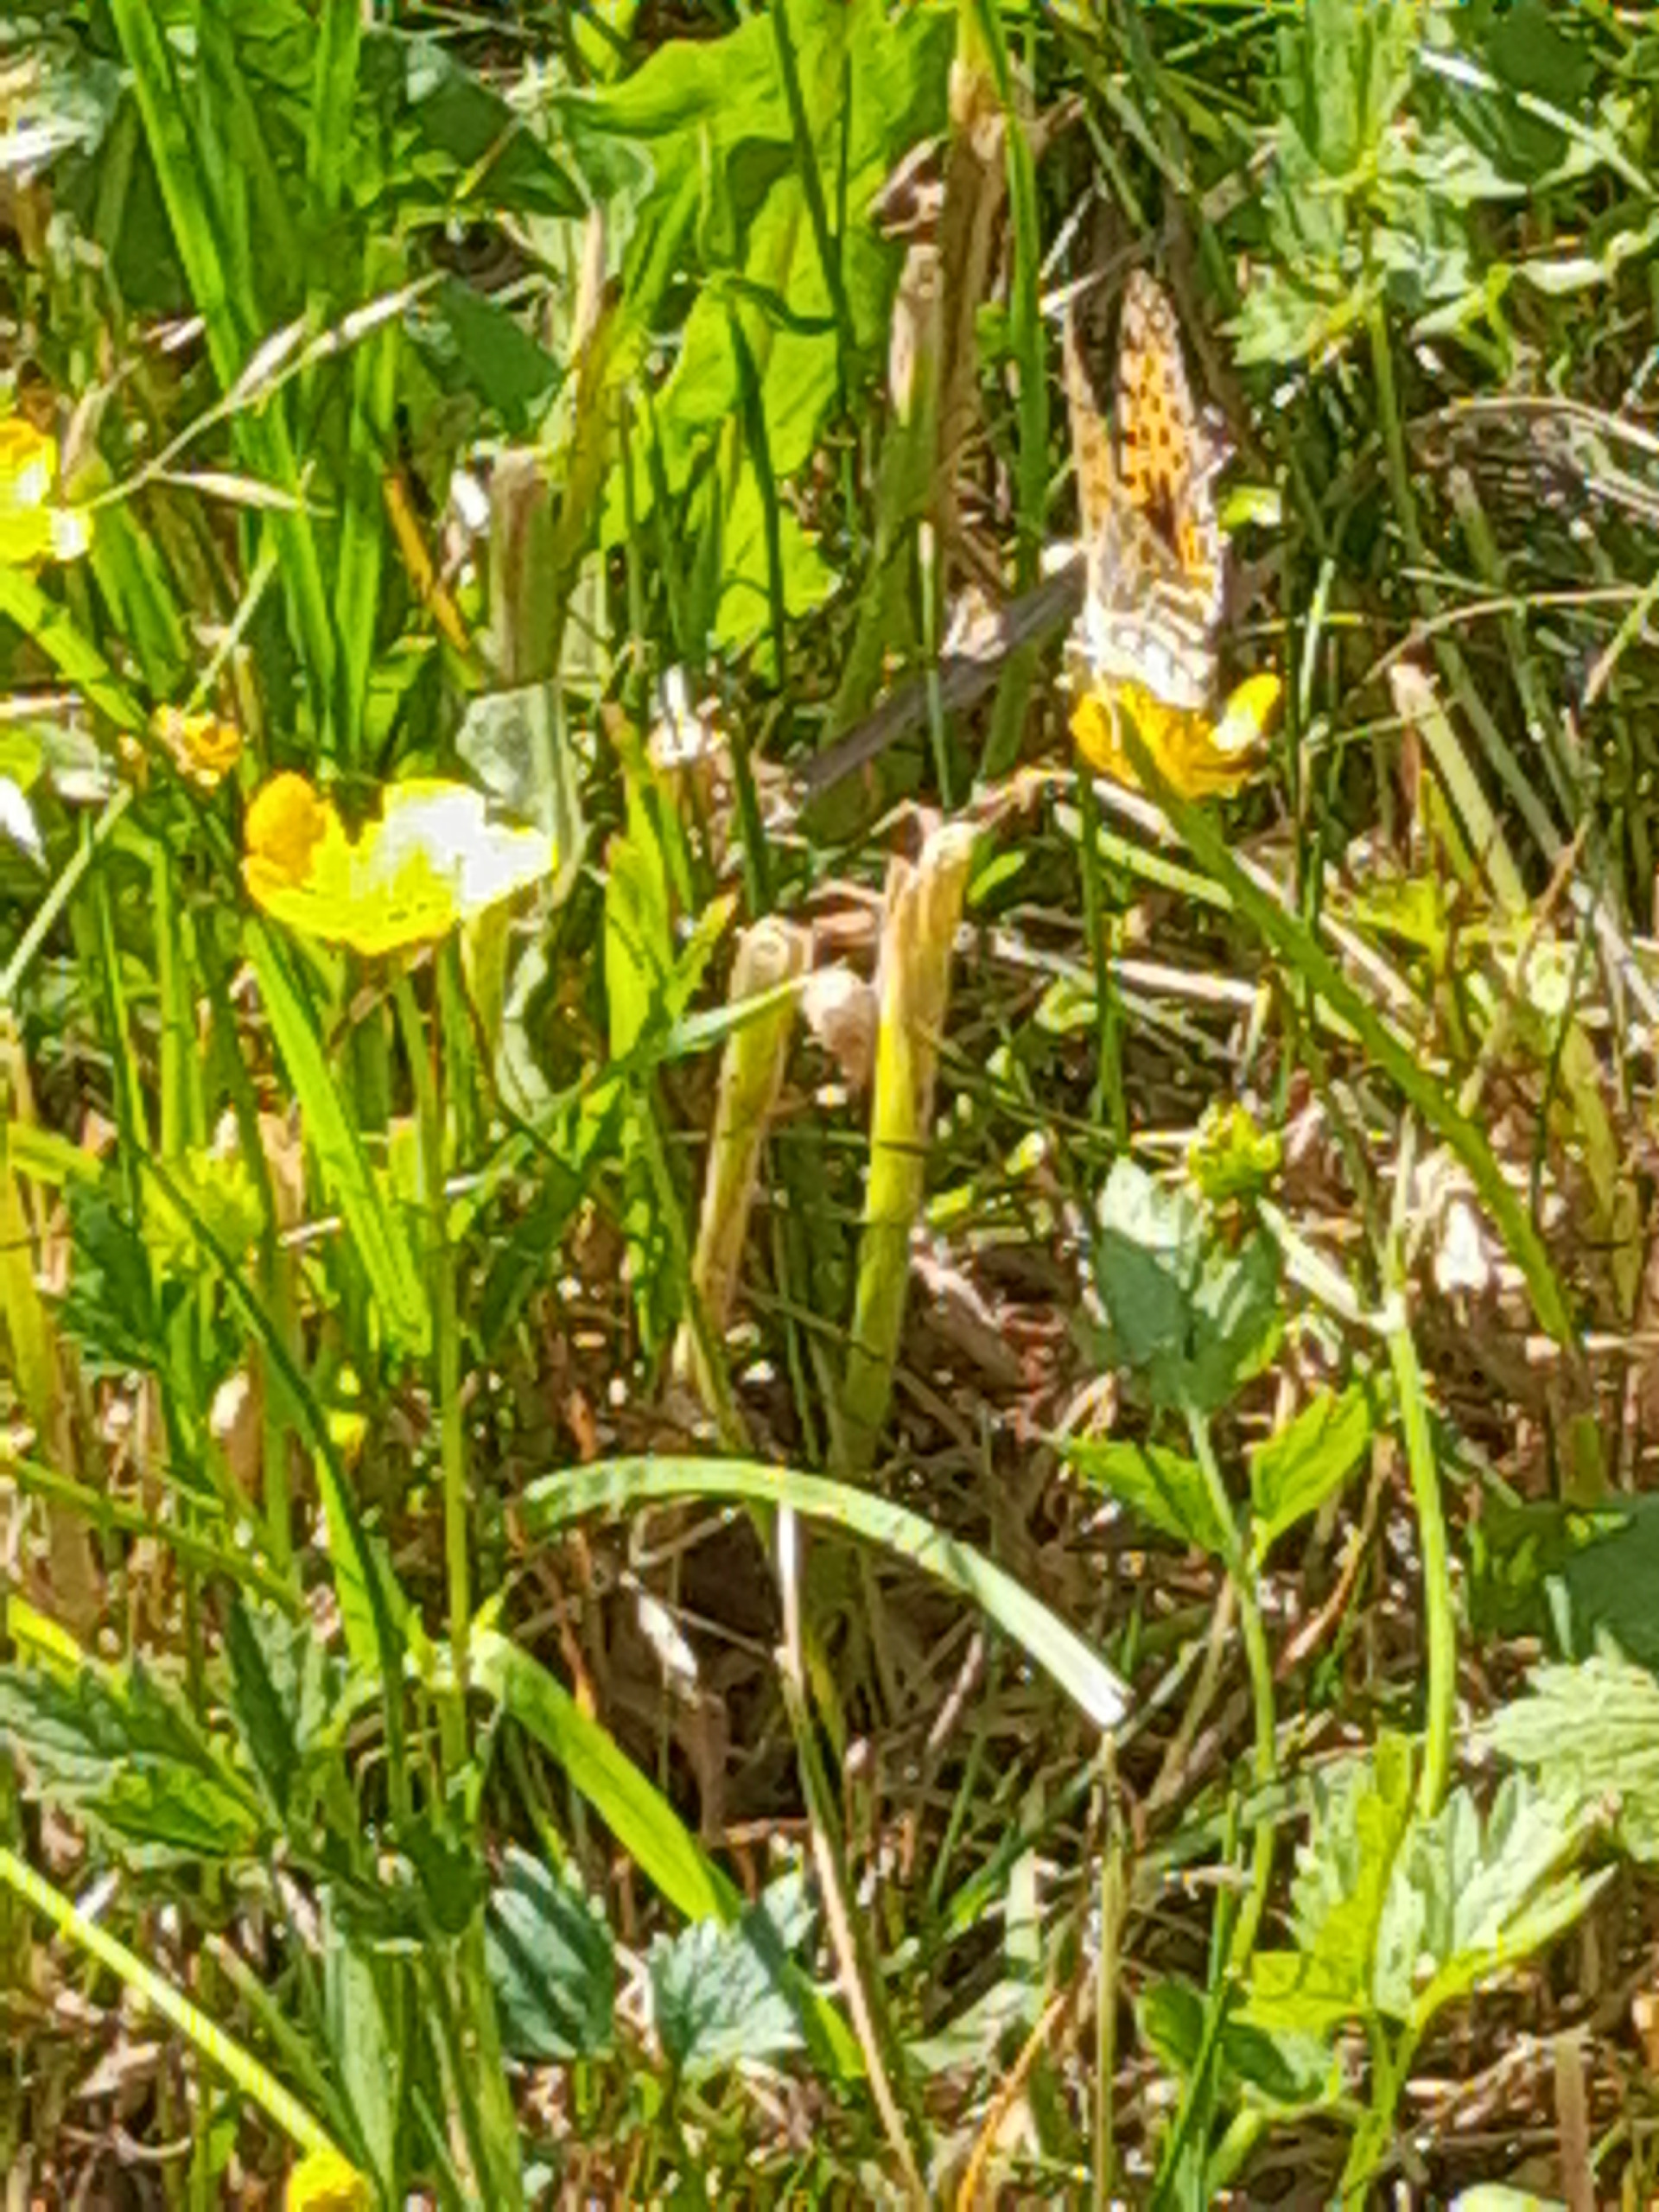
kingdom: Animalia
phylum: Arthropoda
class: Insecta
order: Lepidoptera
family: Nymphalidae
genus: Issoria
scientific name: Issoria lathonia
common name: Storplettet perlemorsommerfugl
